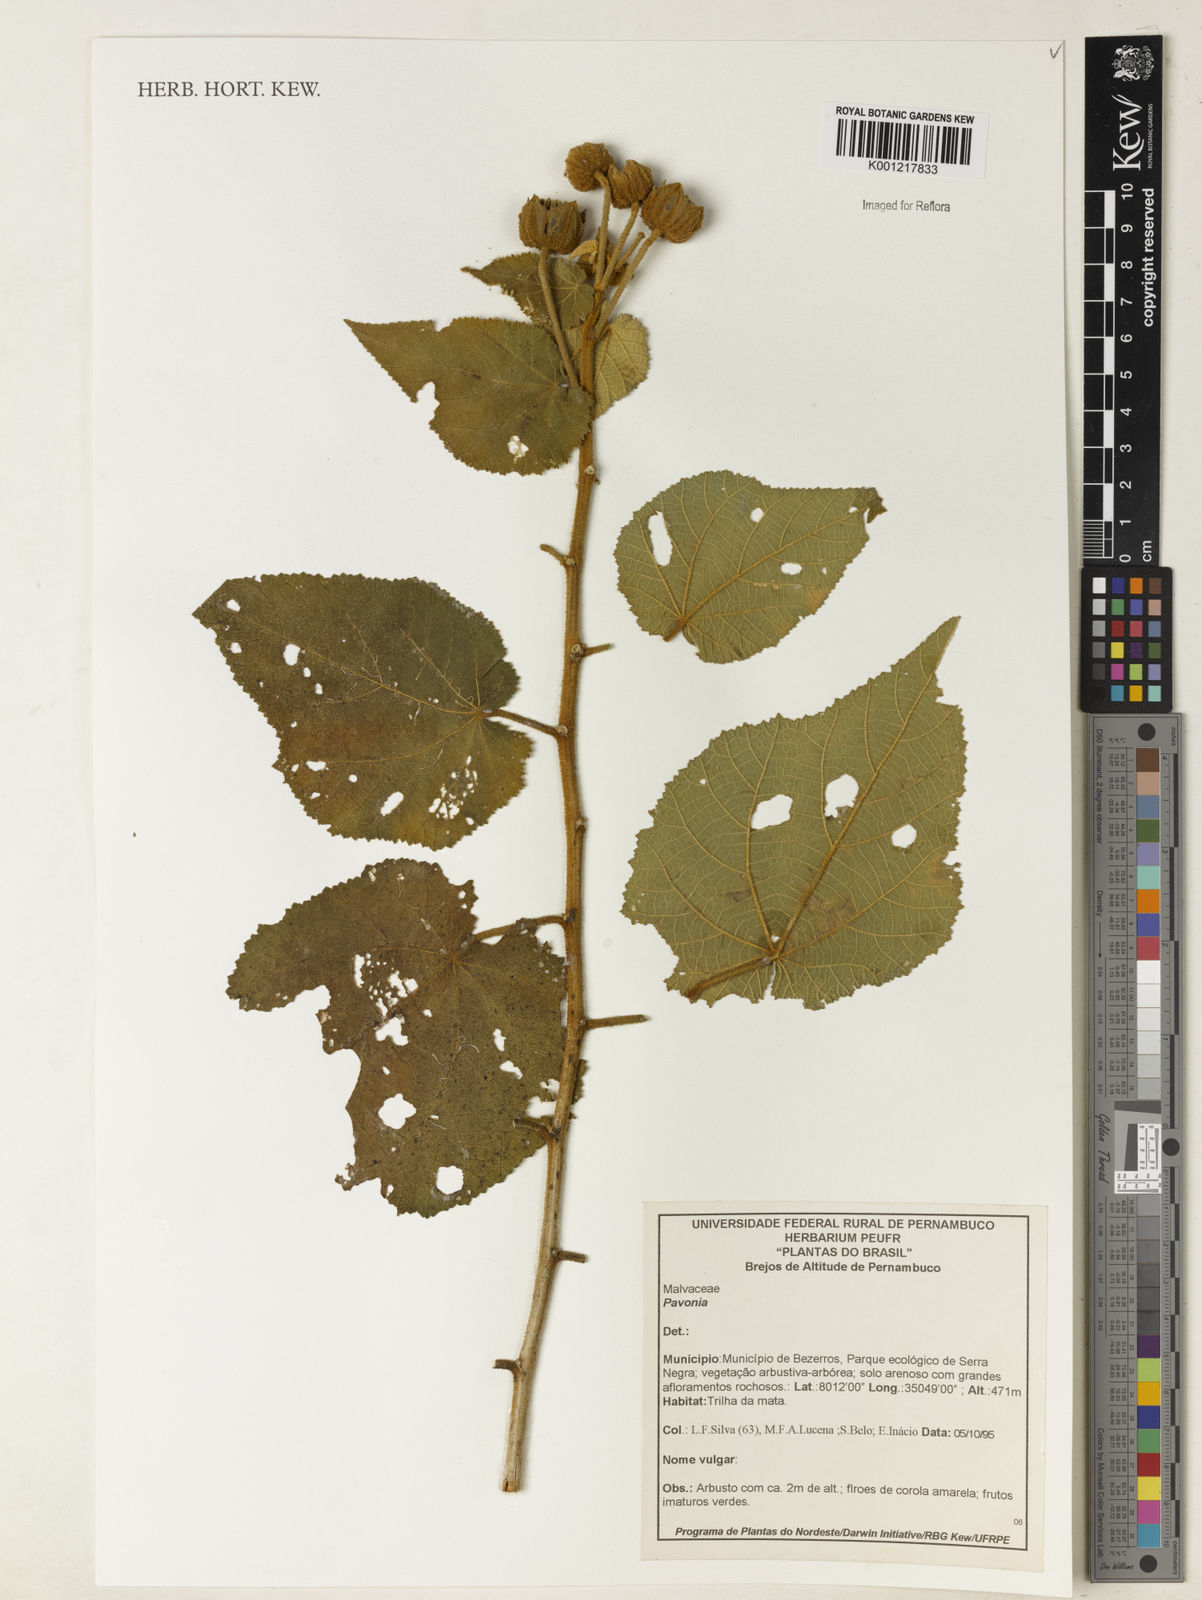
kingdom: Plantae
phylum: Tracheophyta
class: Magnoliopsida
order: Malvales
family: Malvaceae
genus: Pavonia
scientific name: Pavonia
